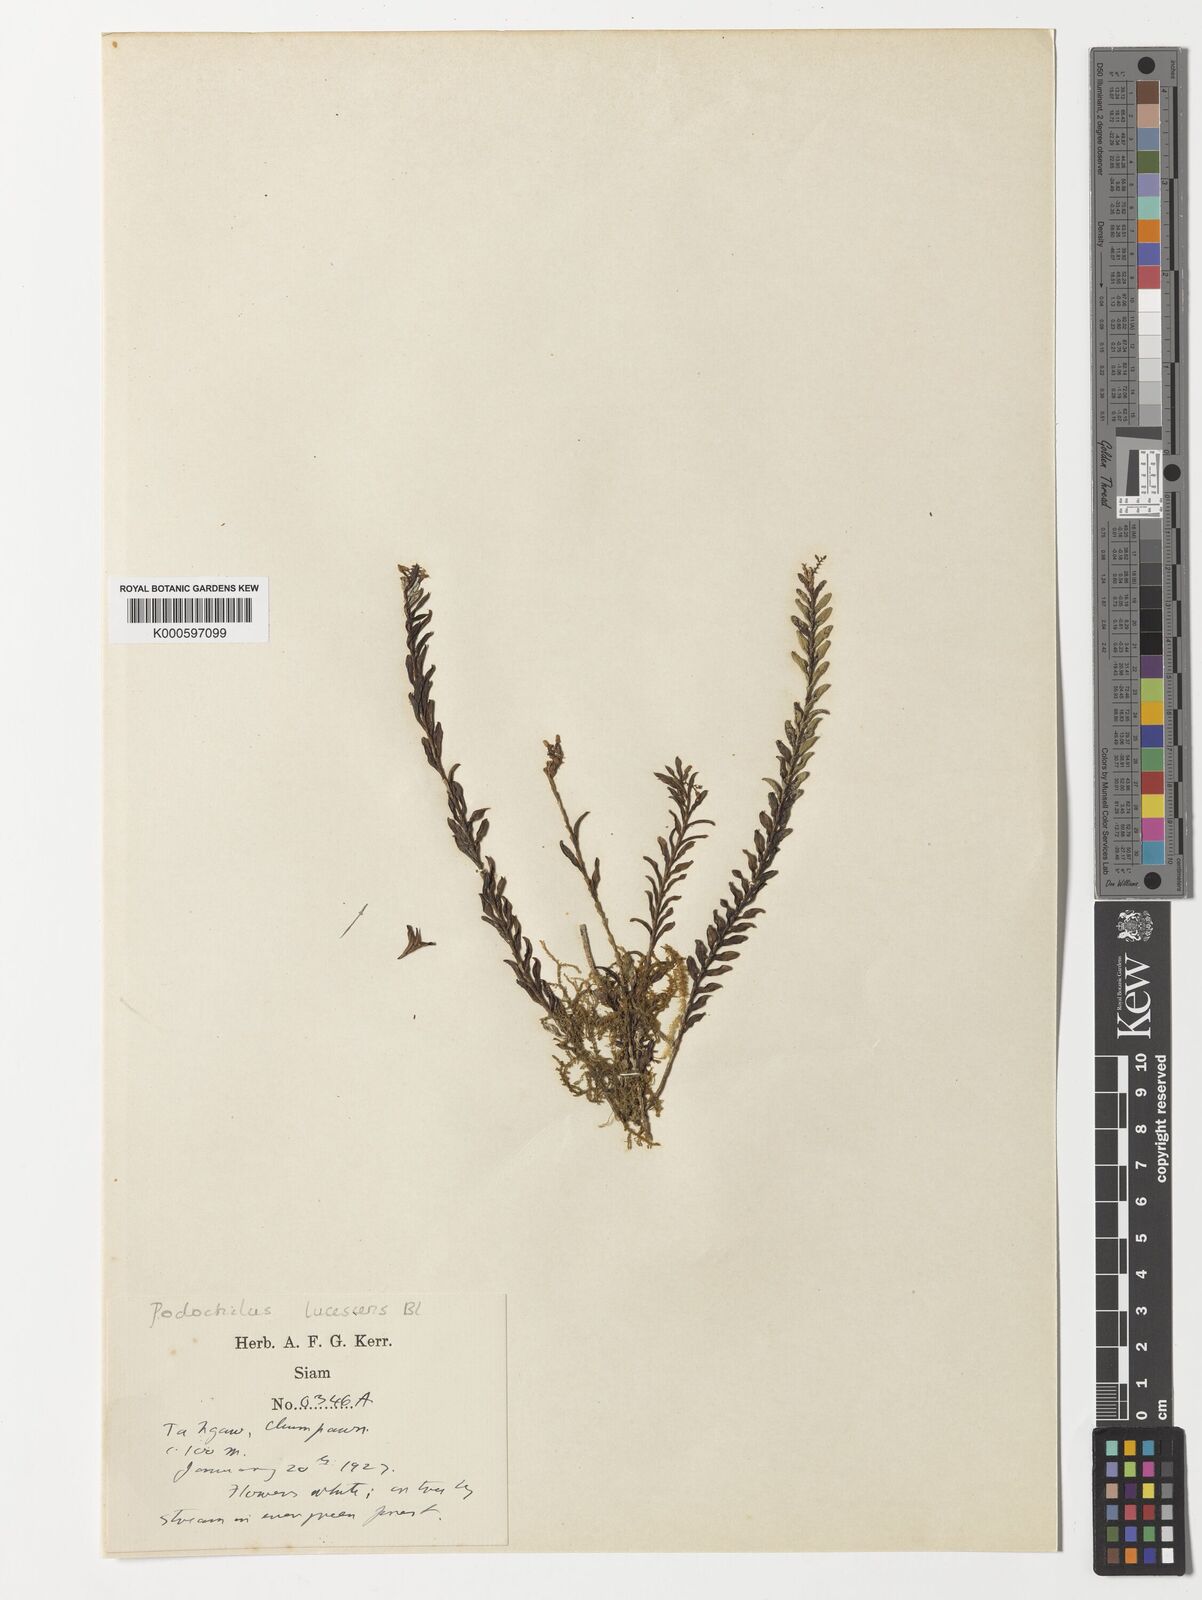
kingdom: Plantae
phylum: Tracheophyta
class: Liliopsida
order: Asparagales
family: Orchidaceae
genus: Podochilus
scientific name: Podochilus lucescens
